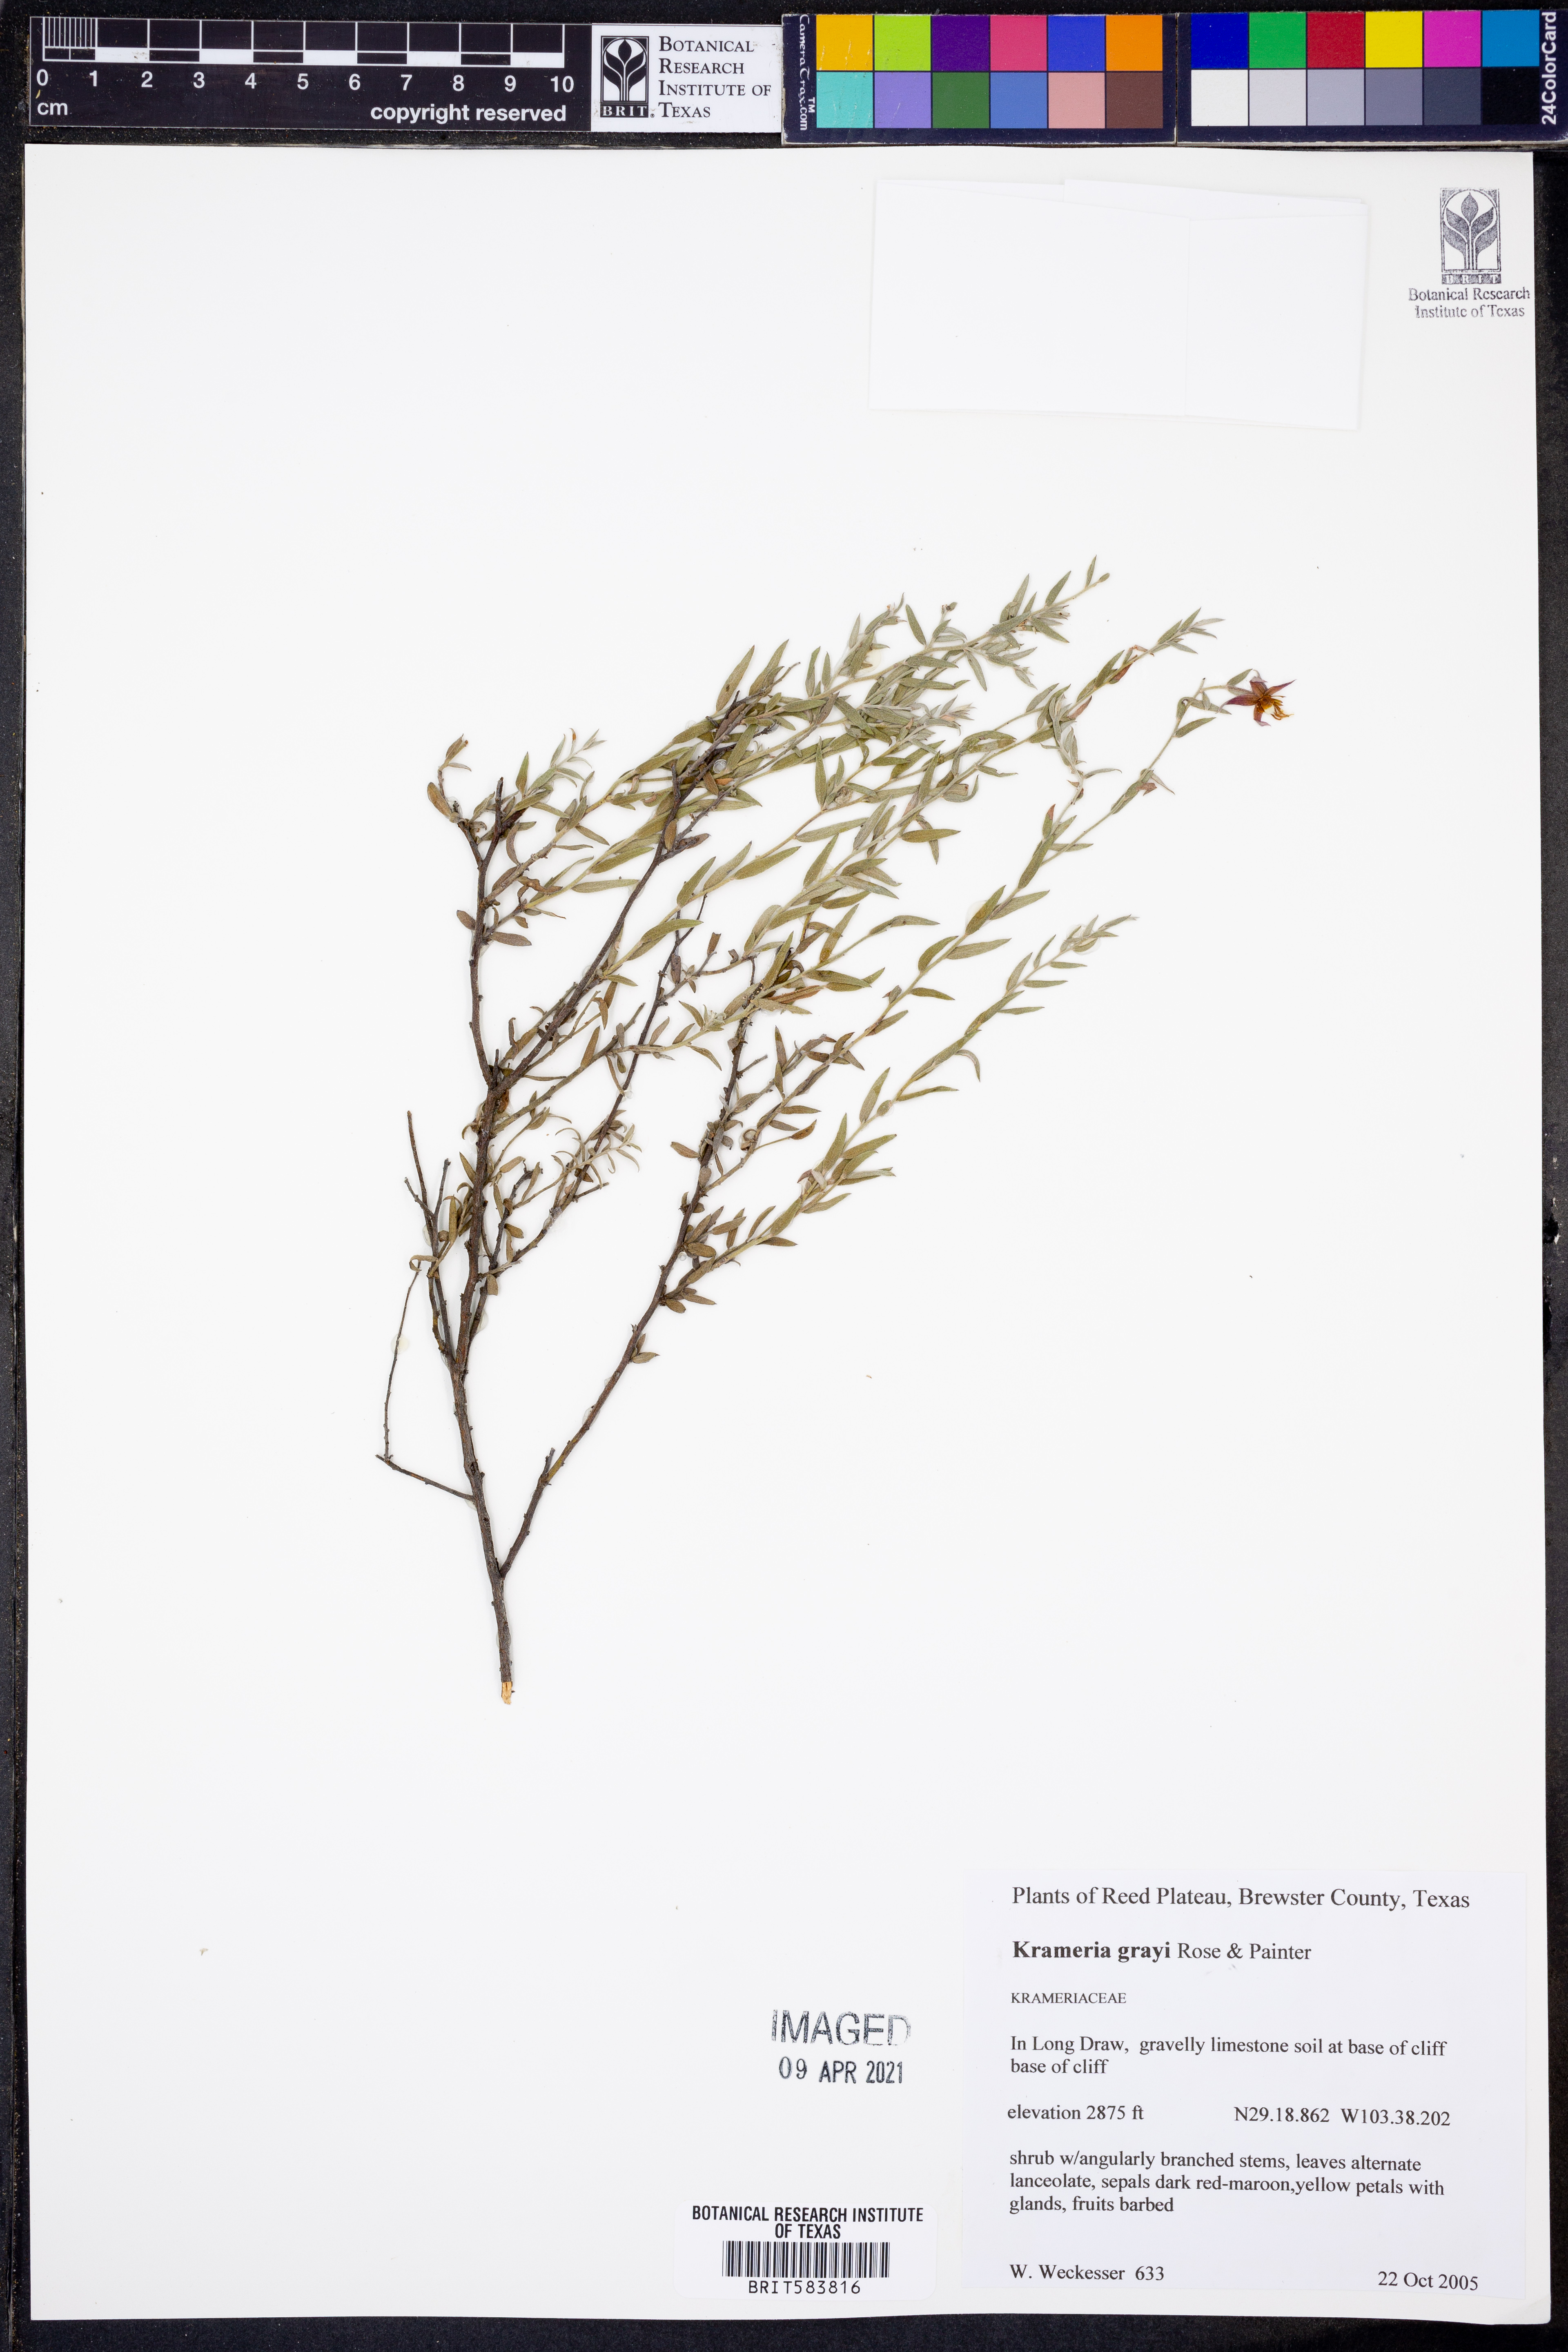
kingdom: Plantae
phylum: Tracheophyta
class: Magnoliopsida
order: Zygophyllales
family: Krameriaceae
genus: Krameria
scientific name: Krameria bicolor
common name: White ratany
